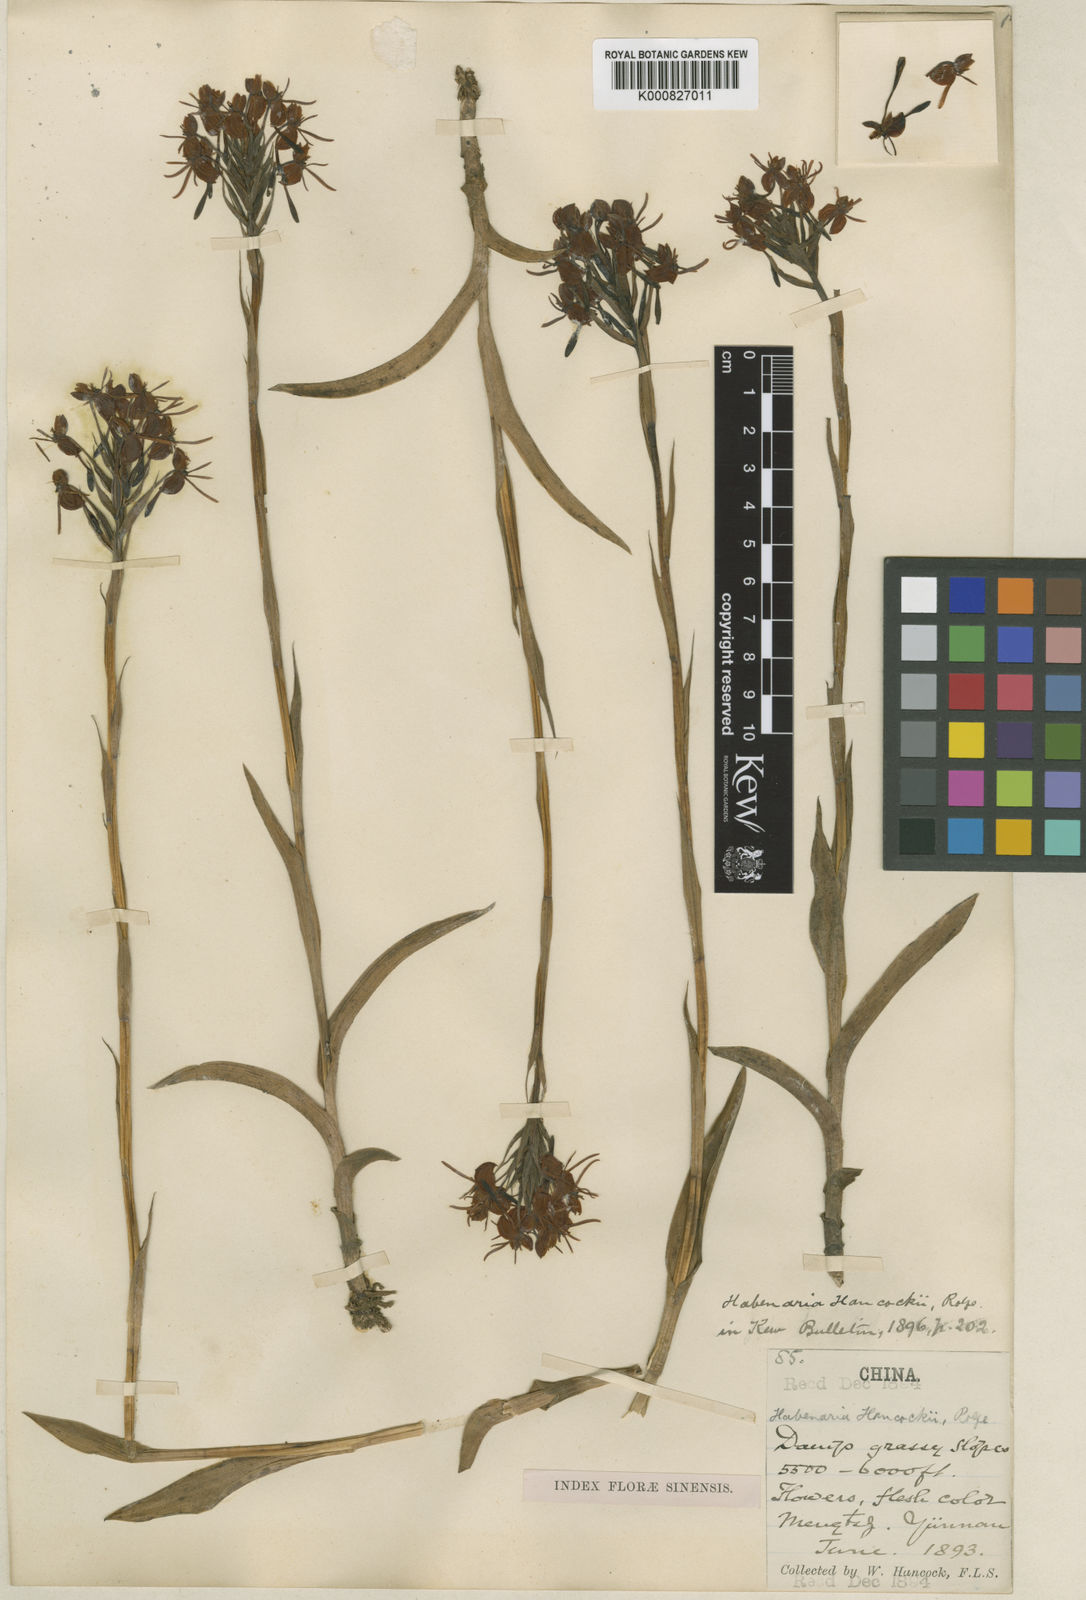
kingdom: Plantae
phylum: Tracheophyta
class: Liliopsida
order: Asparagales
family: Orchidaceae
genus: Habenaria
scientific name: Habenaria rostellifera
